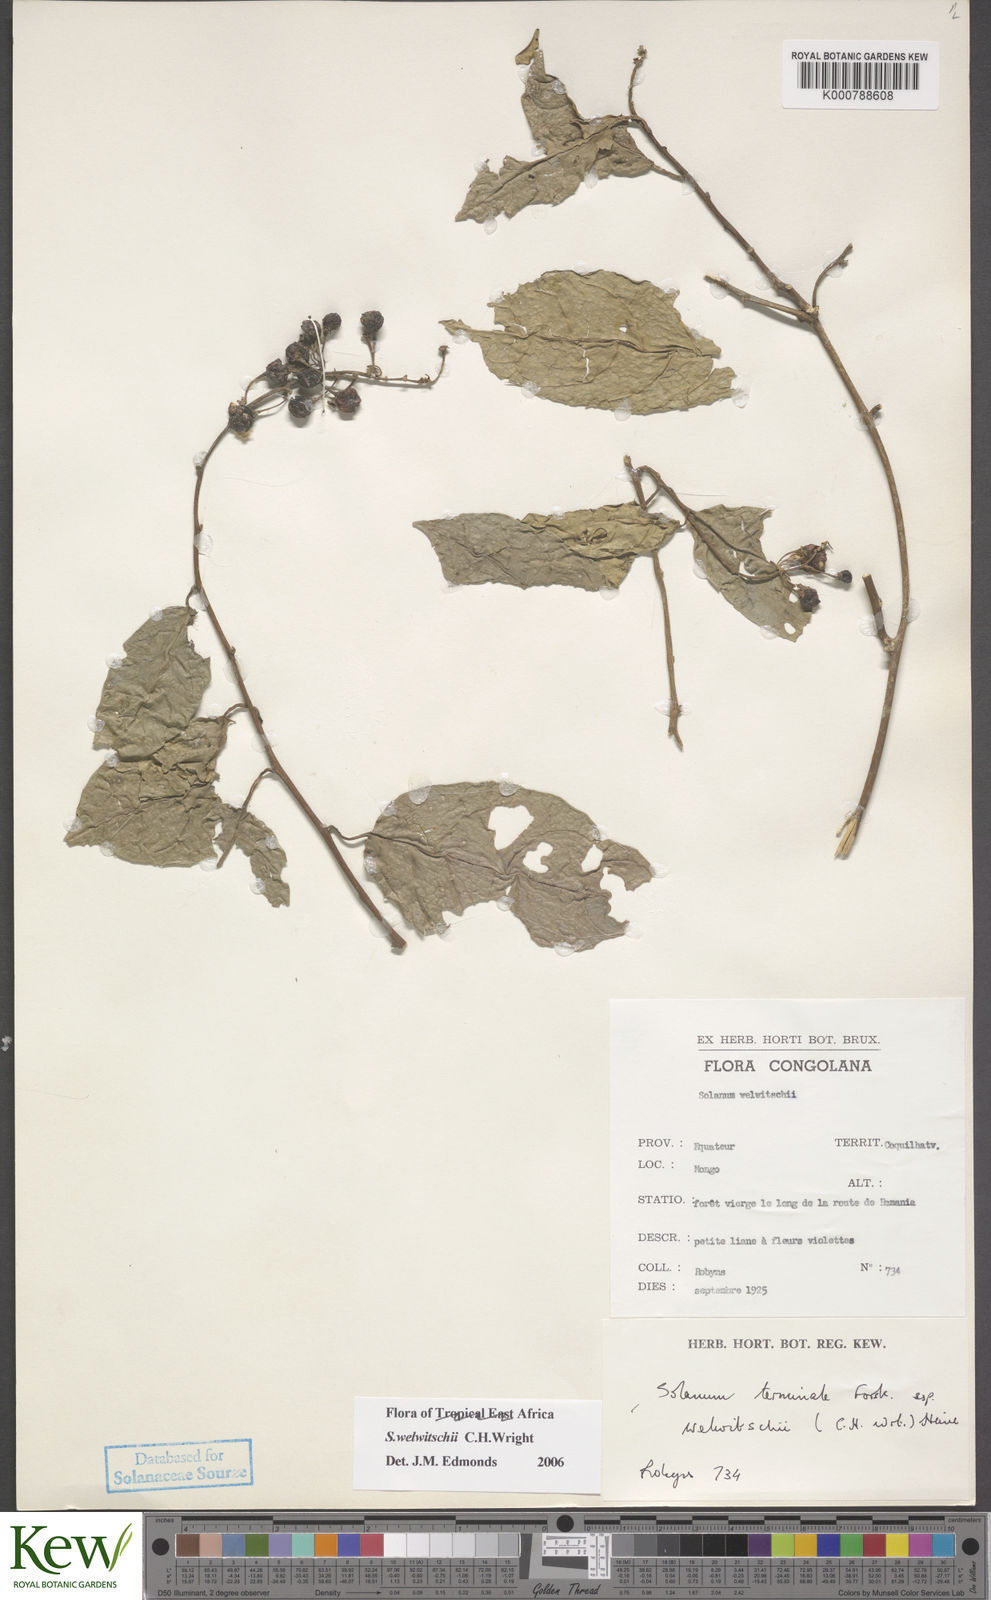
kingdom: Plantae
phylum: Tracheophyta
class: Magnoliopsida
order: Solanales
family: Solanaceae
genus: Solanum
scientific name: Solanum terminale
